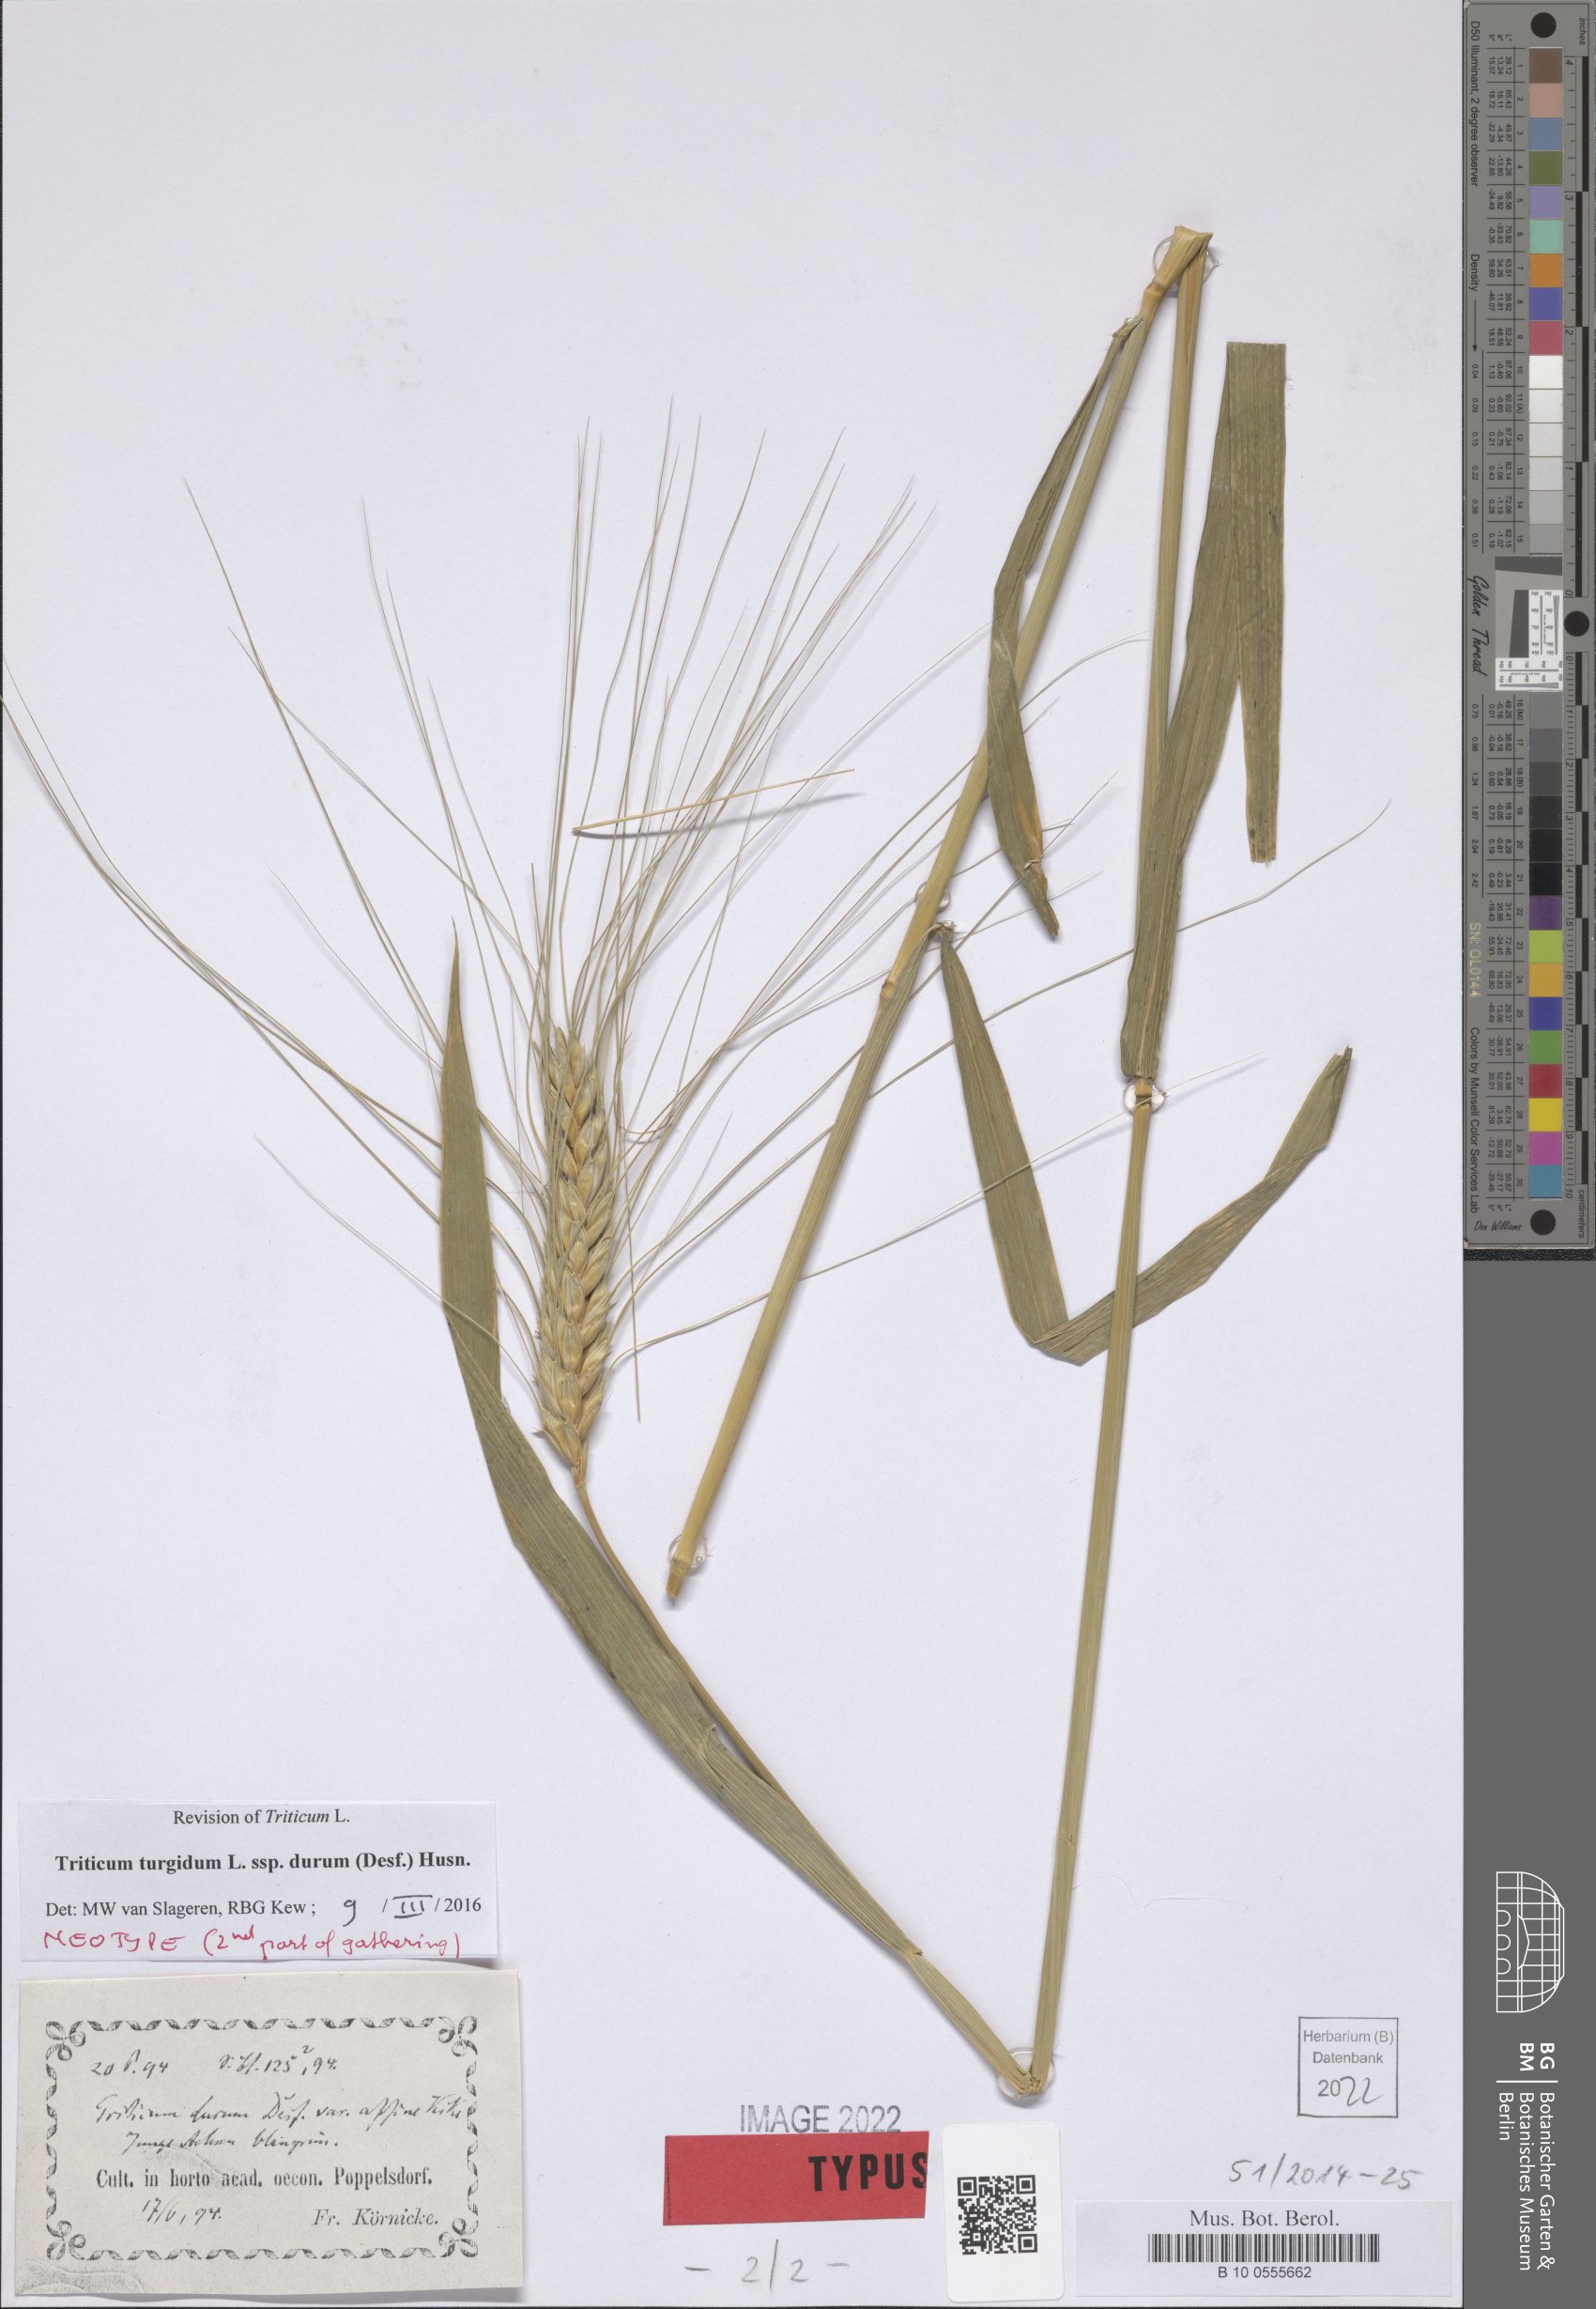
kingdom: Plantae
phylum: Tracheophyta
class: Liliopsida
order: Poales
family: Poaceae
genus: Triticum
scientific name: Triticum turgidum
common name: Rivet wheat
